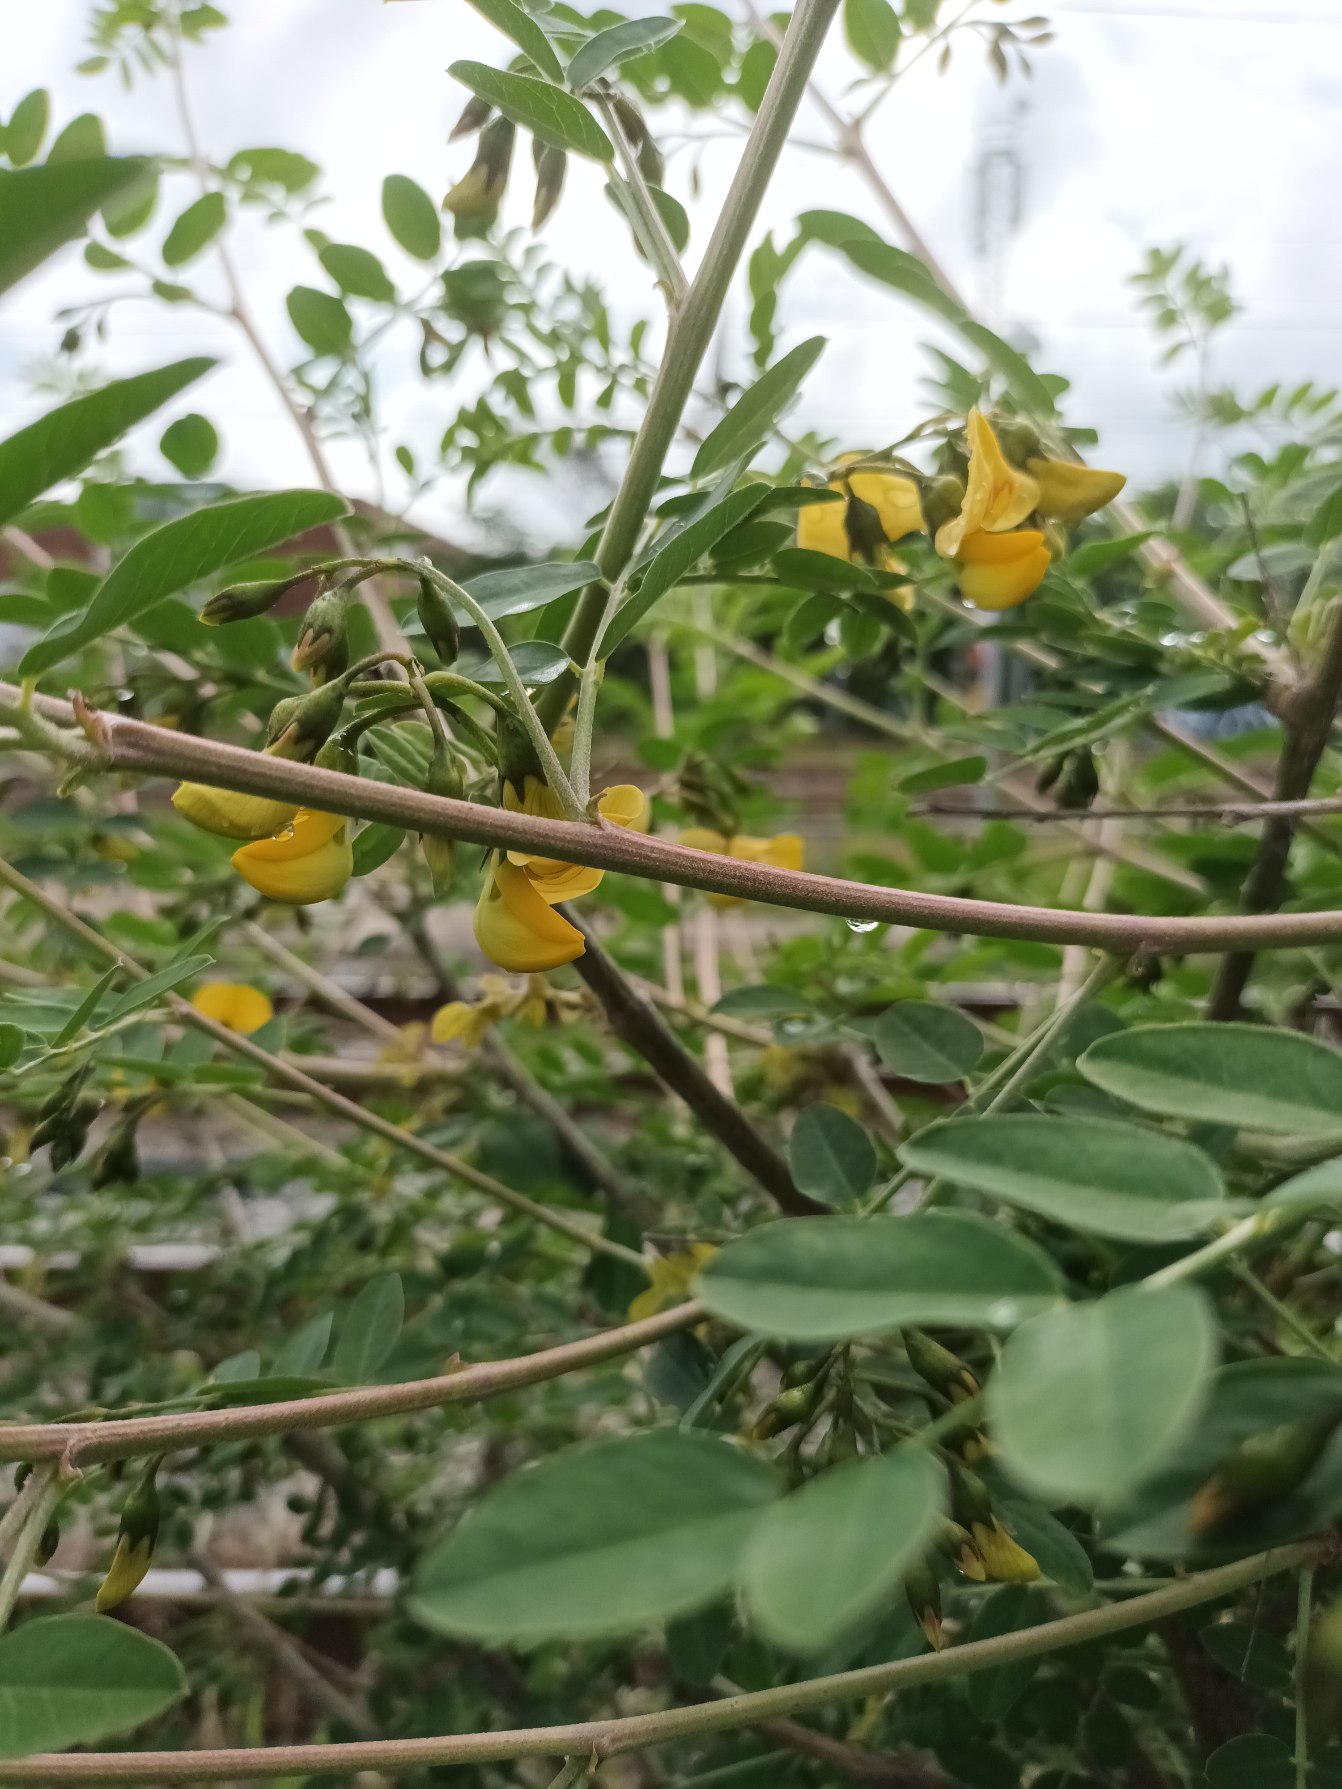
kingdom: Plantae
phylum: Tracheophyta
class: Magnoliopsida
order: Fabales
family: Fabaceae
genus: Colutea
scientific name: Colutea arborescens
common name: Almindelig blærebælg
